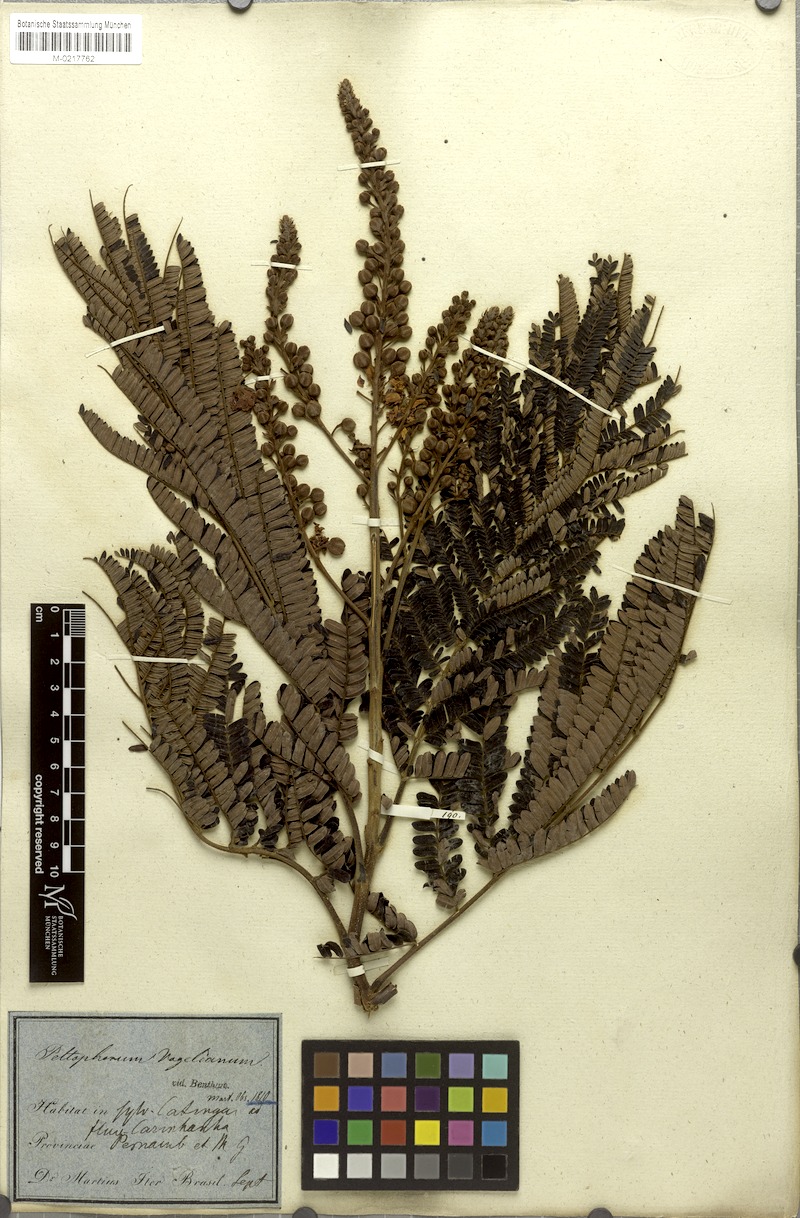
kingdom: Plantae
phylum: Tracheophyta
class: Magnoliopsida
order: Fabales
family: Fabaceae
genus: Peltophorum
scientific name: Peltophorum dubium
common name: Horsebush
